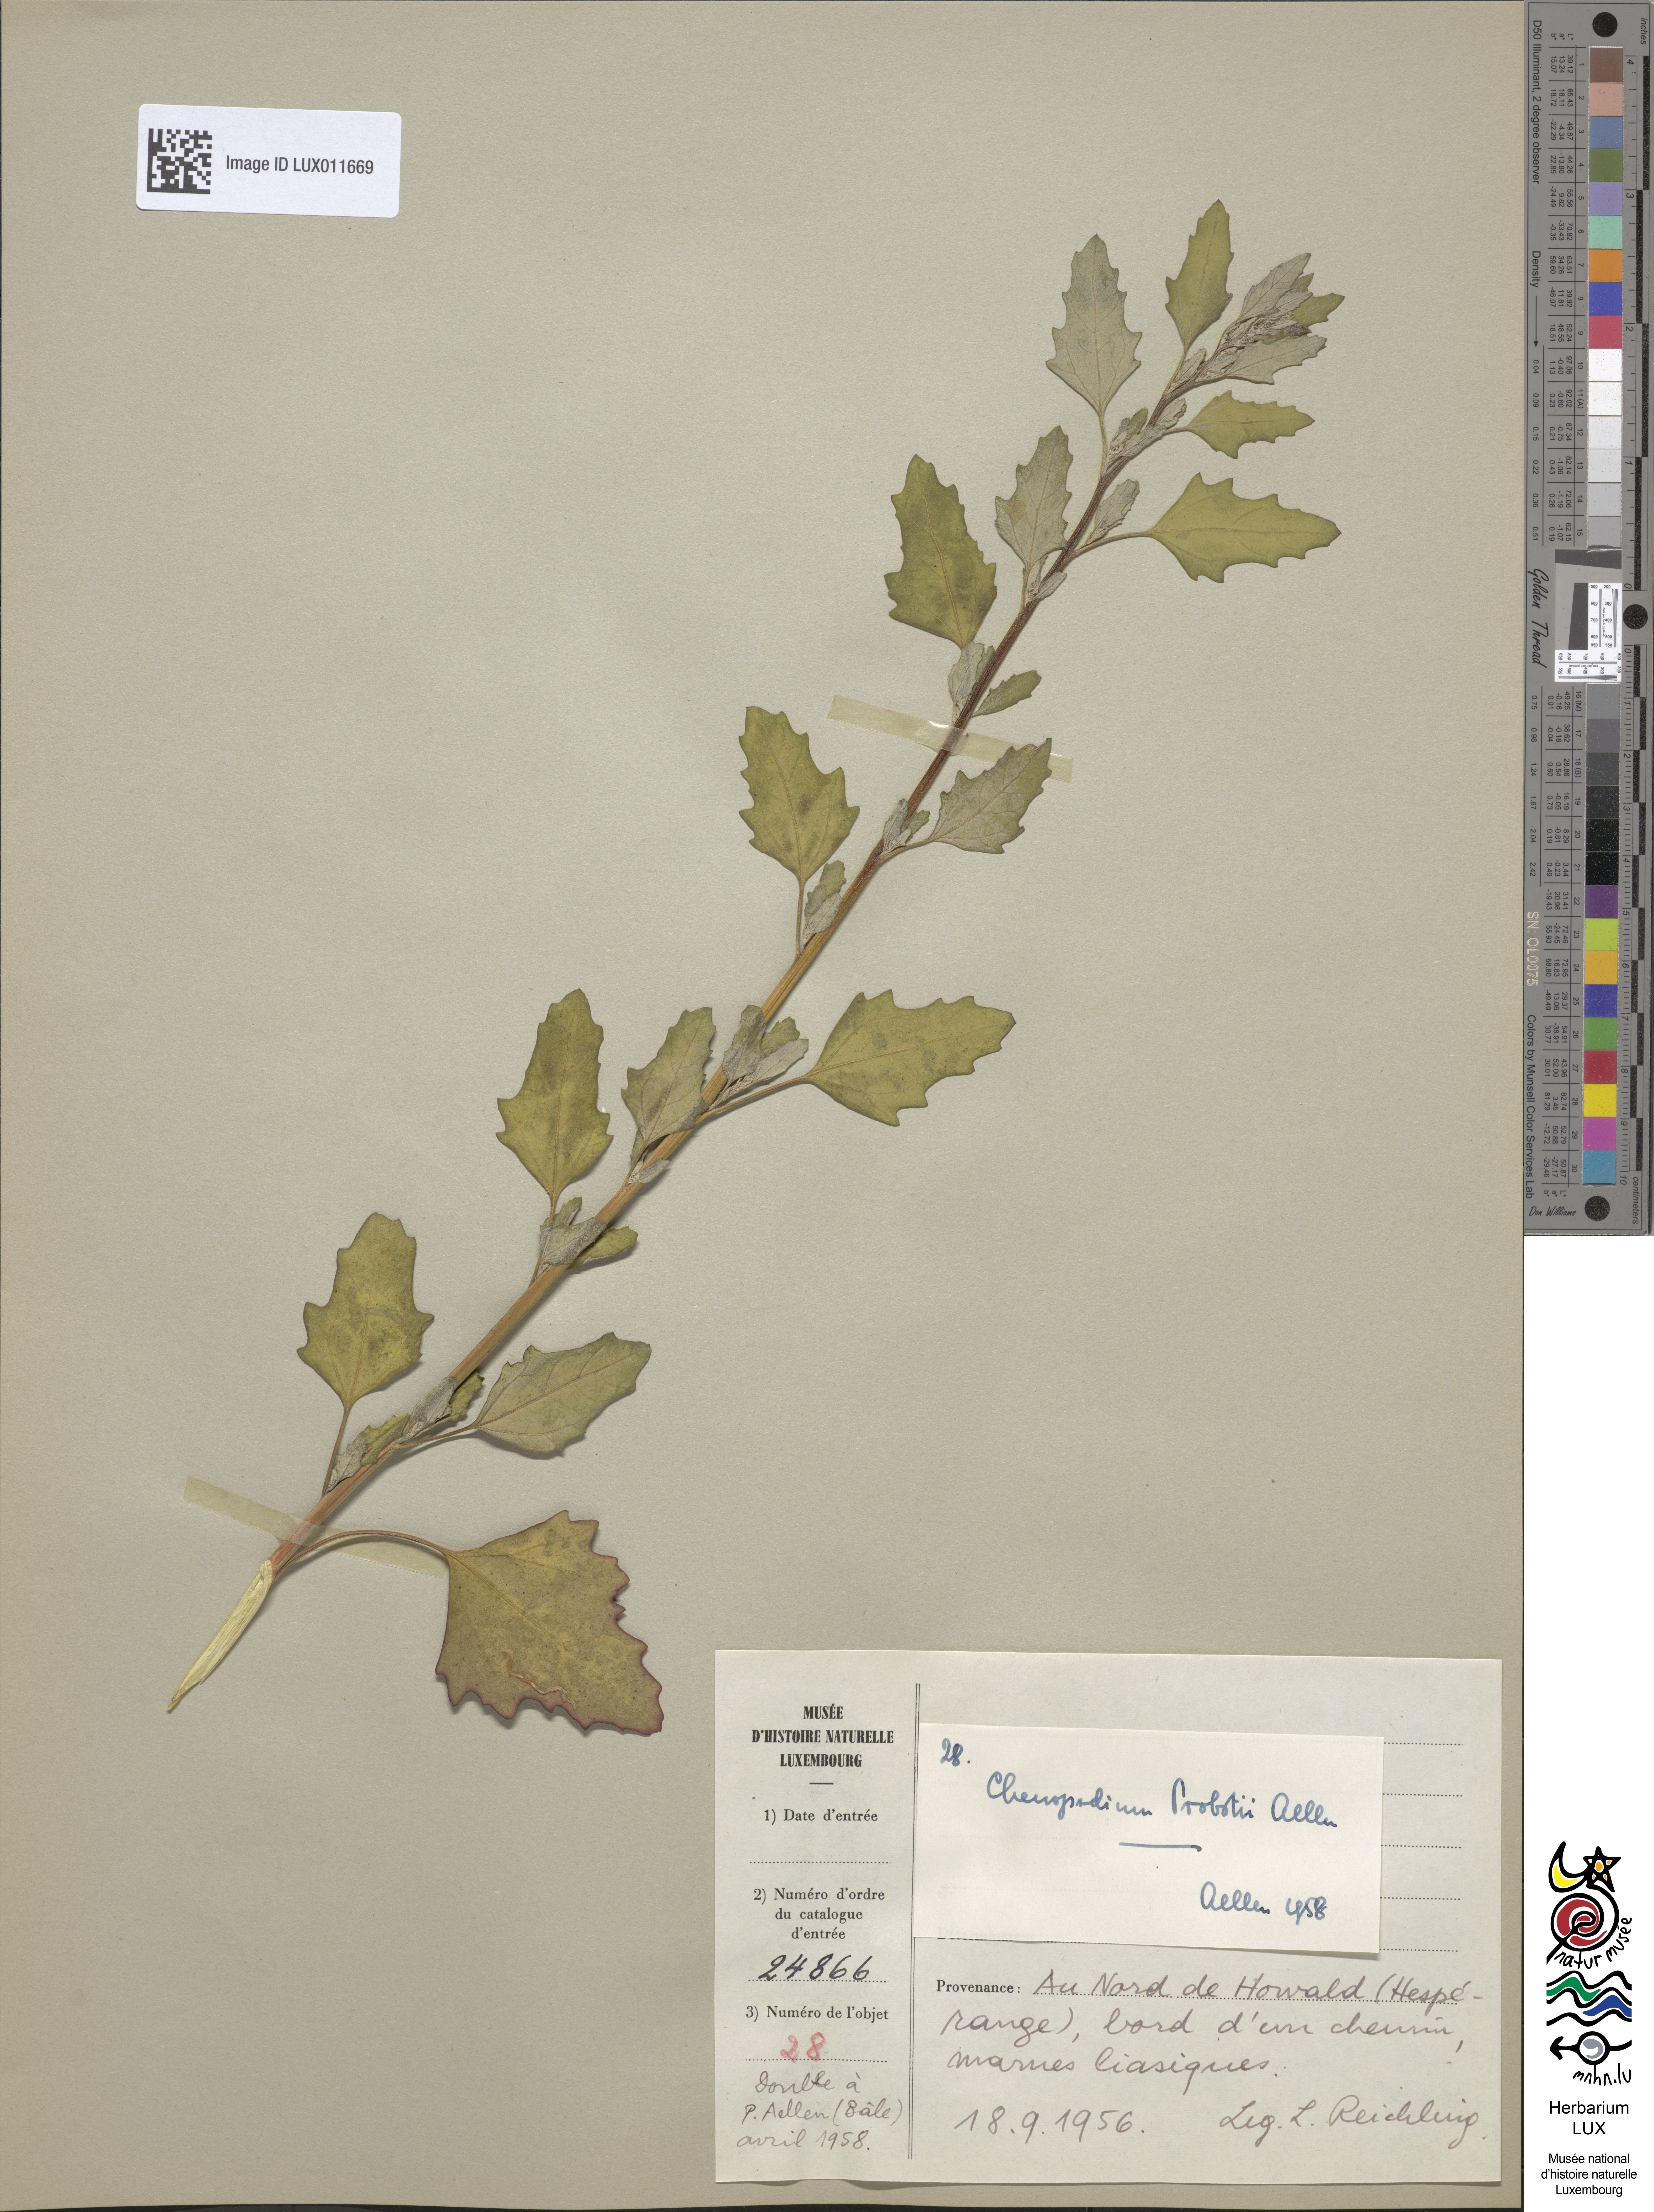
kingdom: Plantae
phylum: Tracheophyta
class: Magnoliopsida
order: Caryophyllales
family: Amaranthaceae
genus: Chenopodium
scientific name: Chenopodium probstii
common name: Probst's goosefoot
